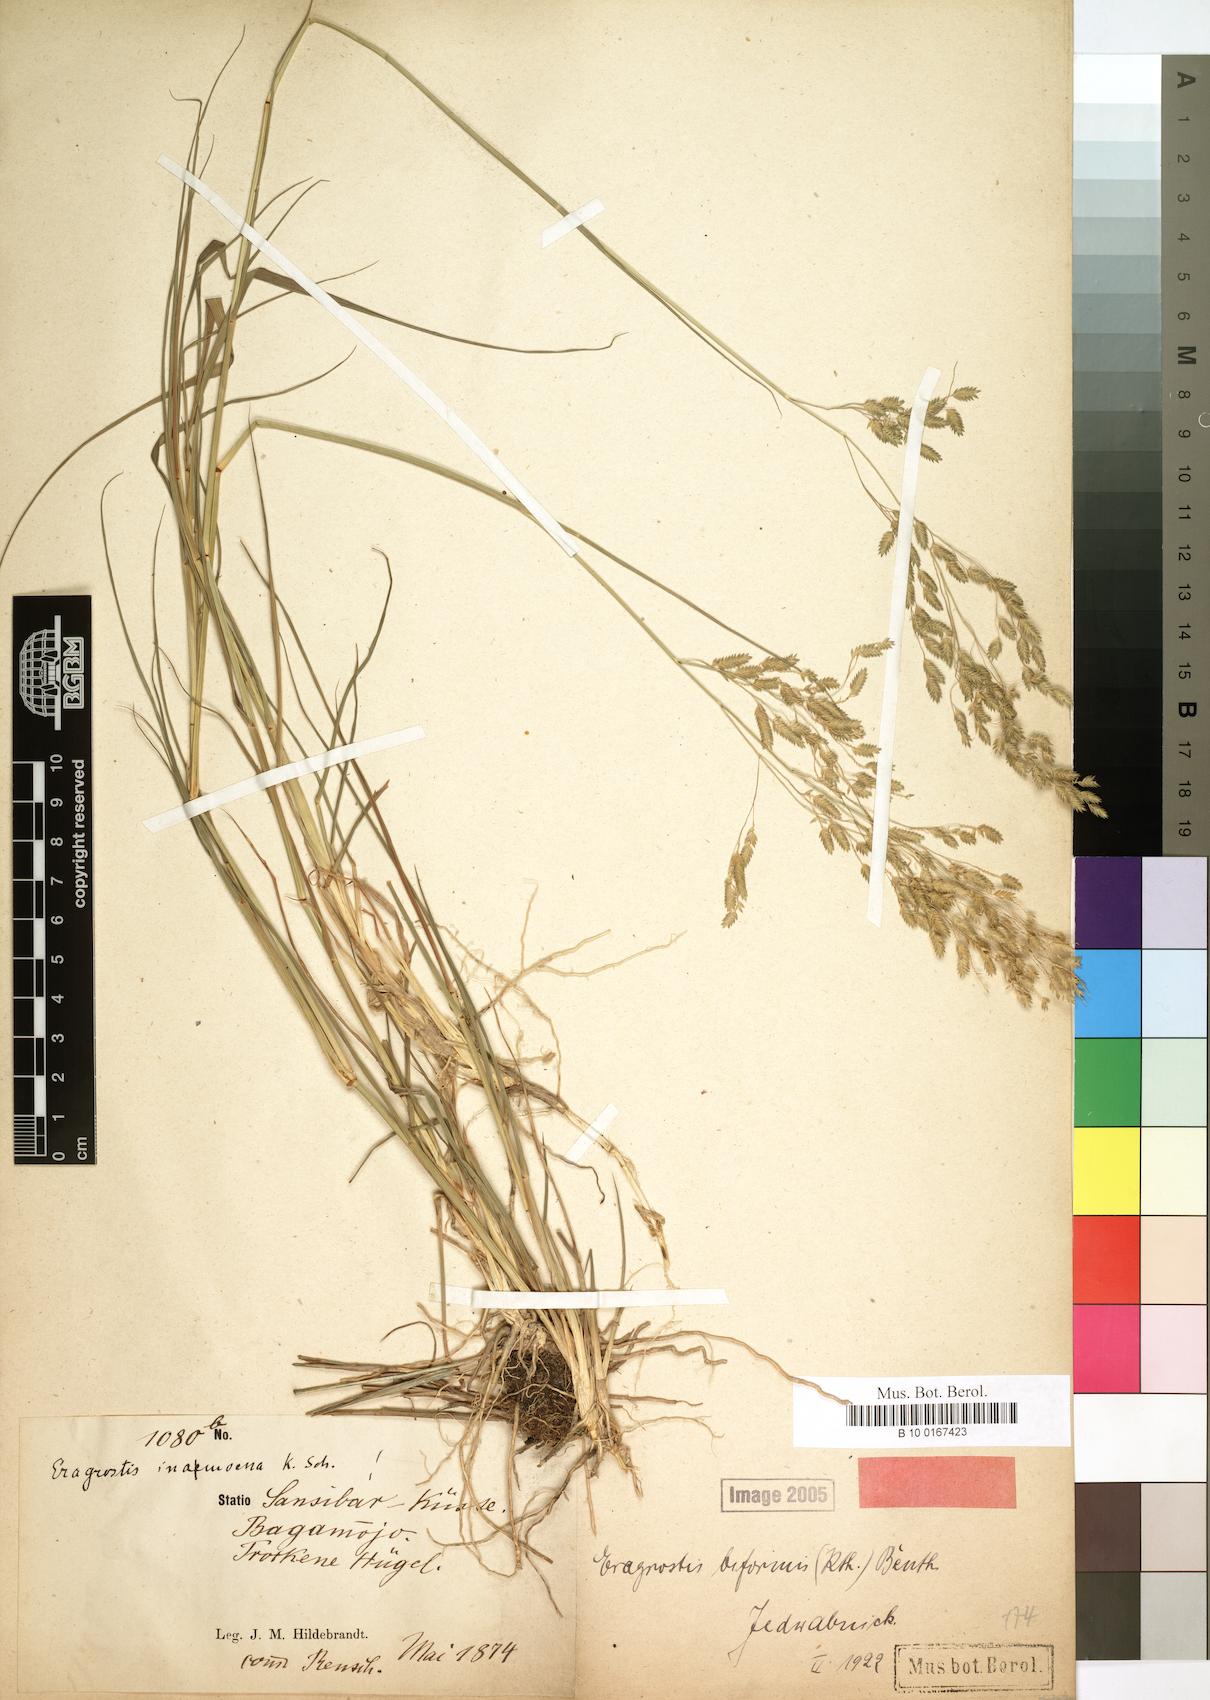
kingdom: Plantae
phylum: Tracheophyta
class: Liliopsida
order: Poales
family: Poaceae
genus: Eragrostis
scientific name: Eragrostis inamoena
